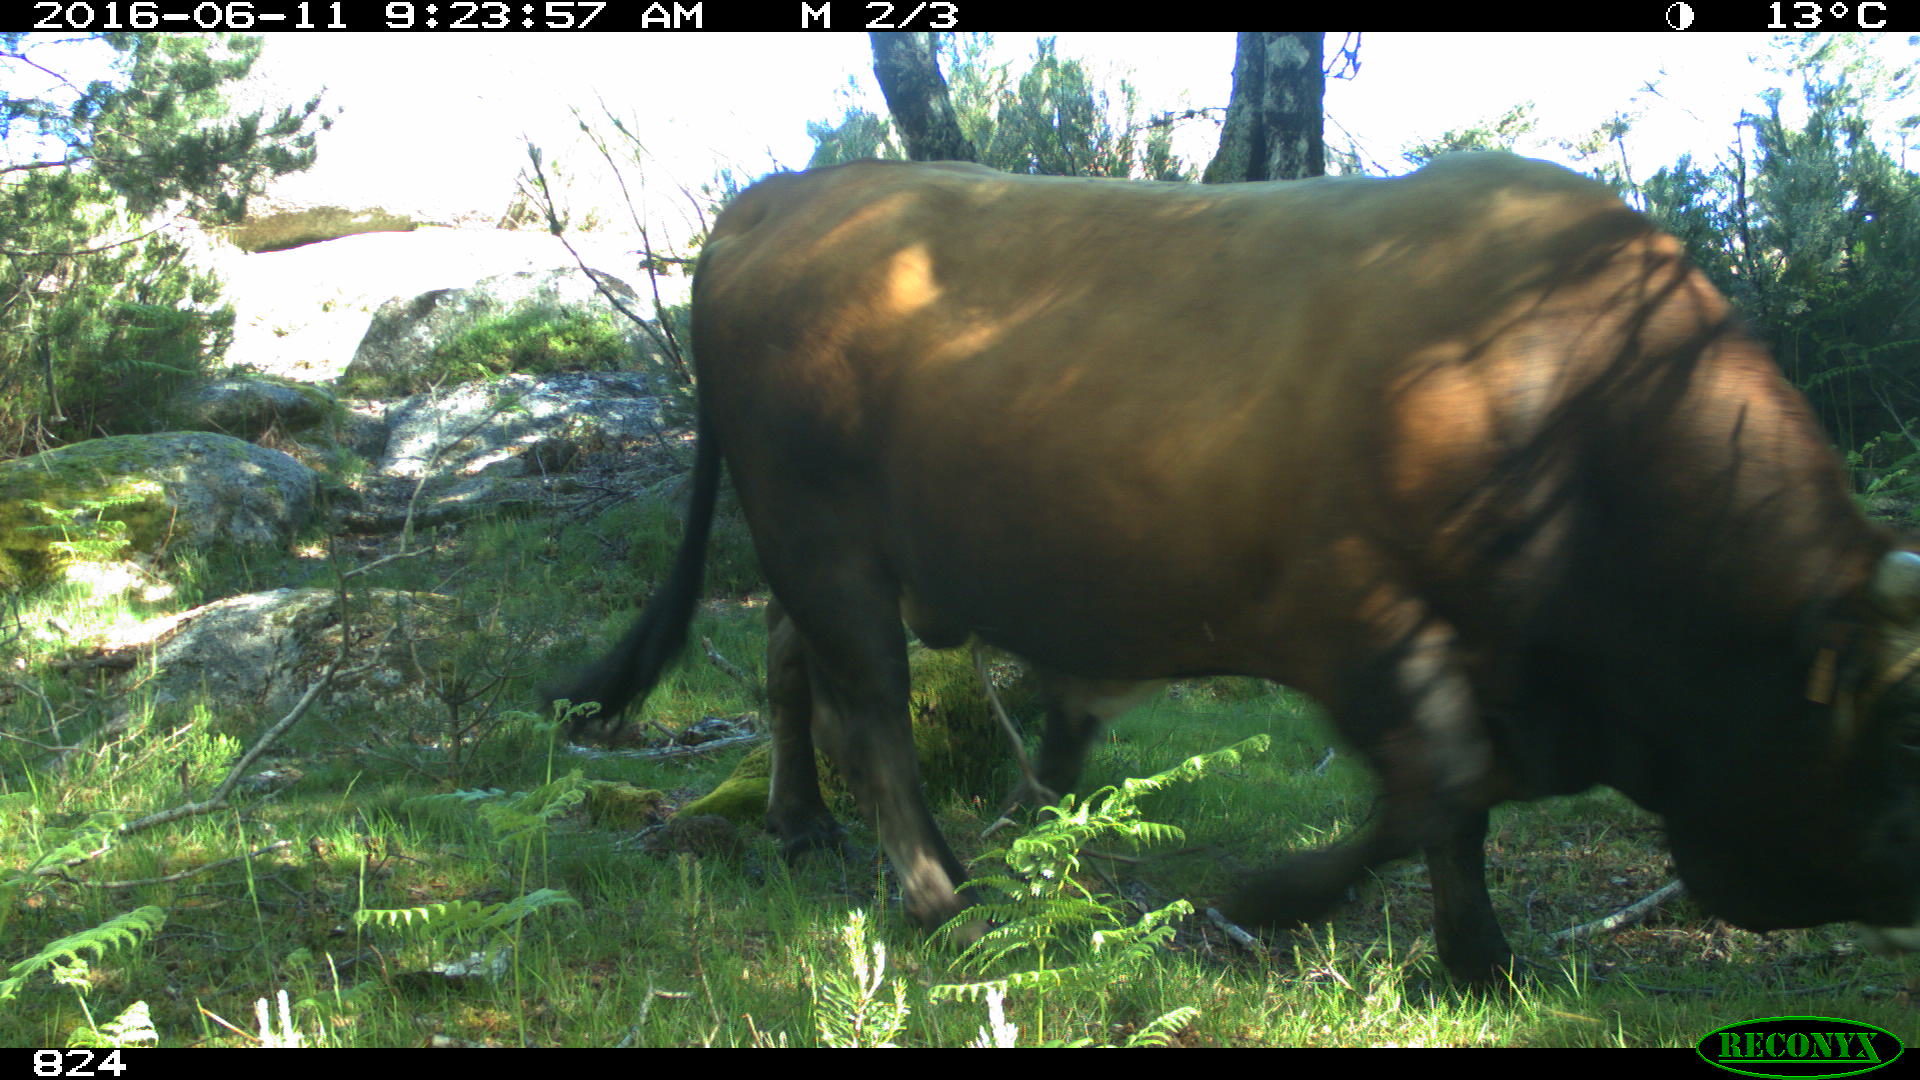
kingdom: Animalia
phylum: Chordata
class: Mammalia
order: Artiodactyla
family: Bovidae
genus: Bos
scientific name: Bos taurus
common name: Domesticated cattle
